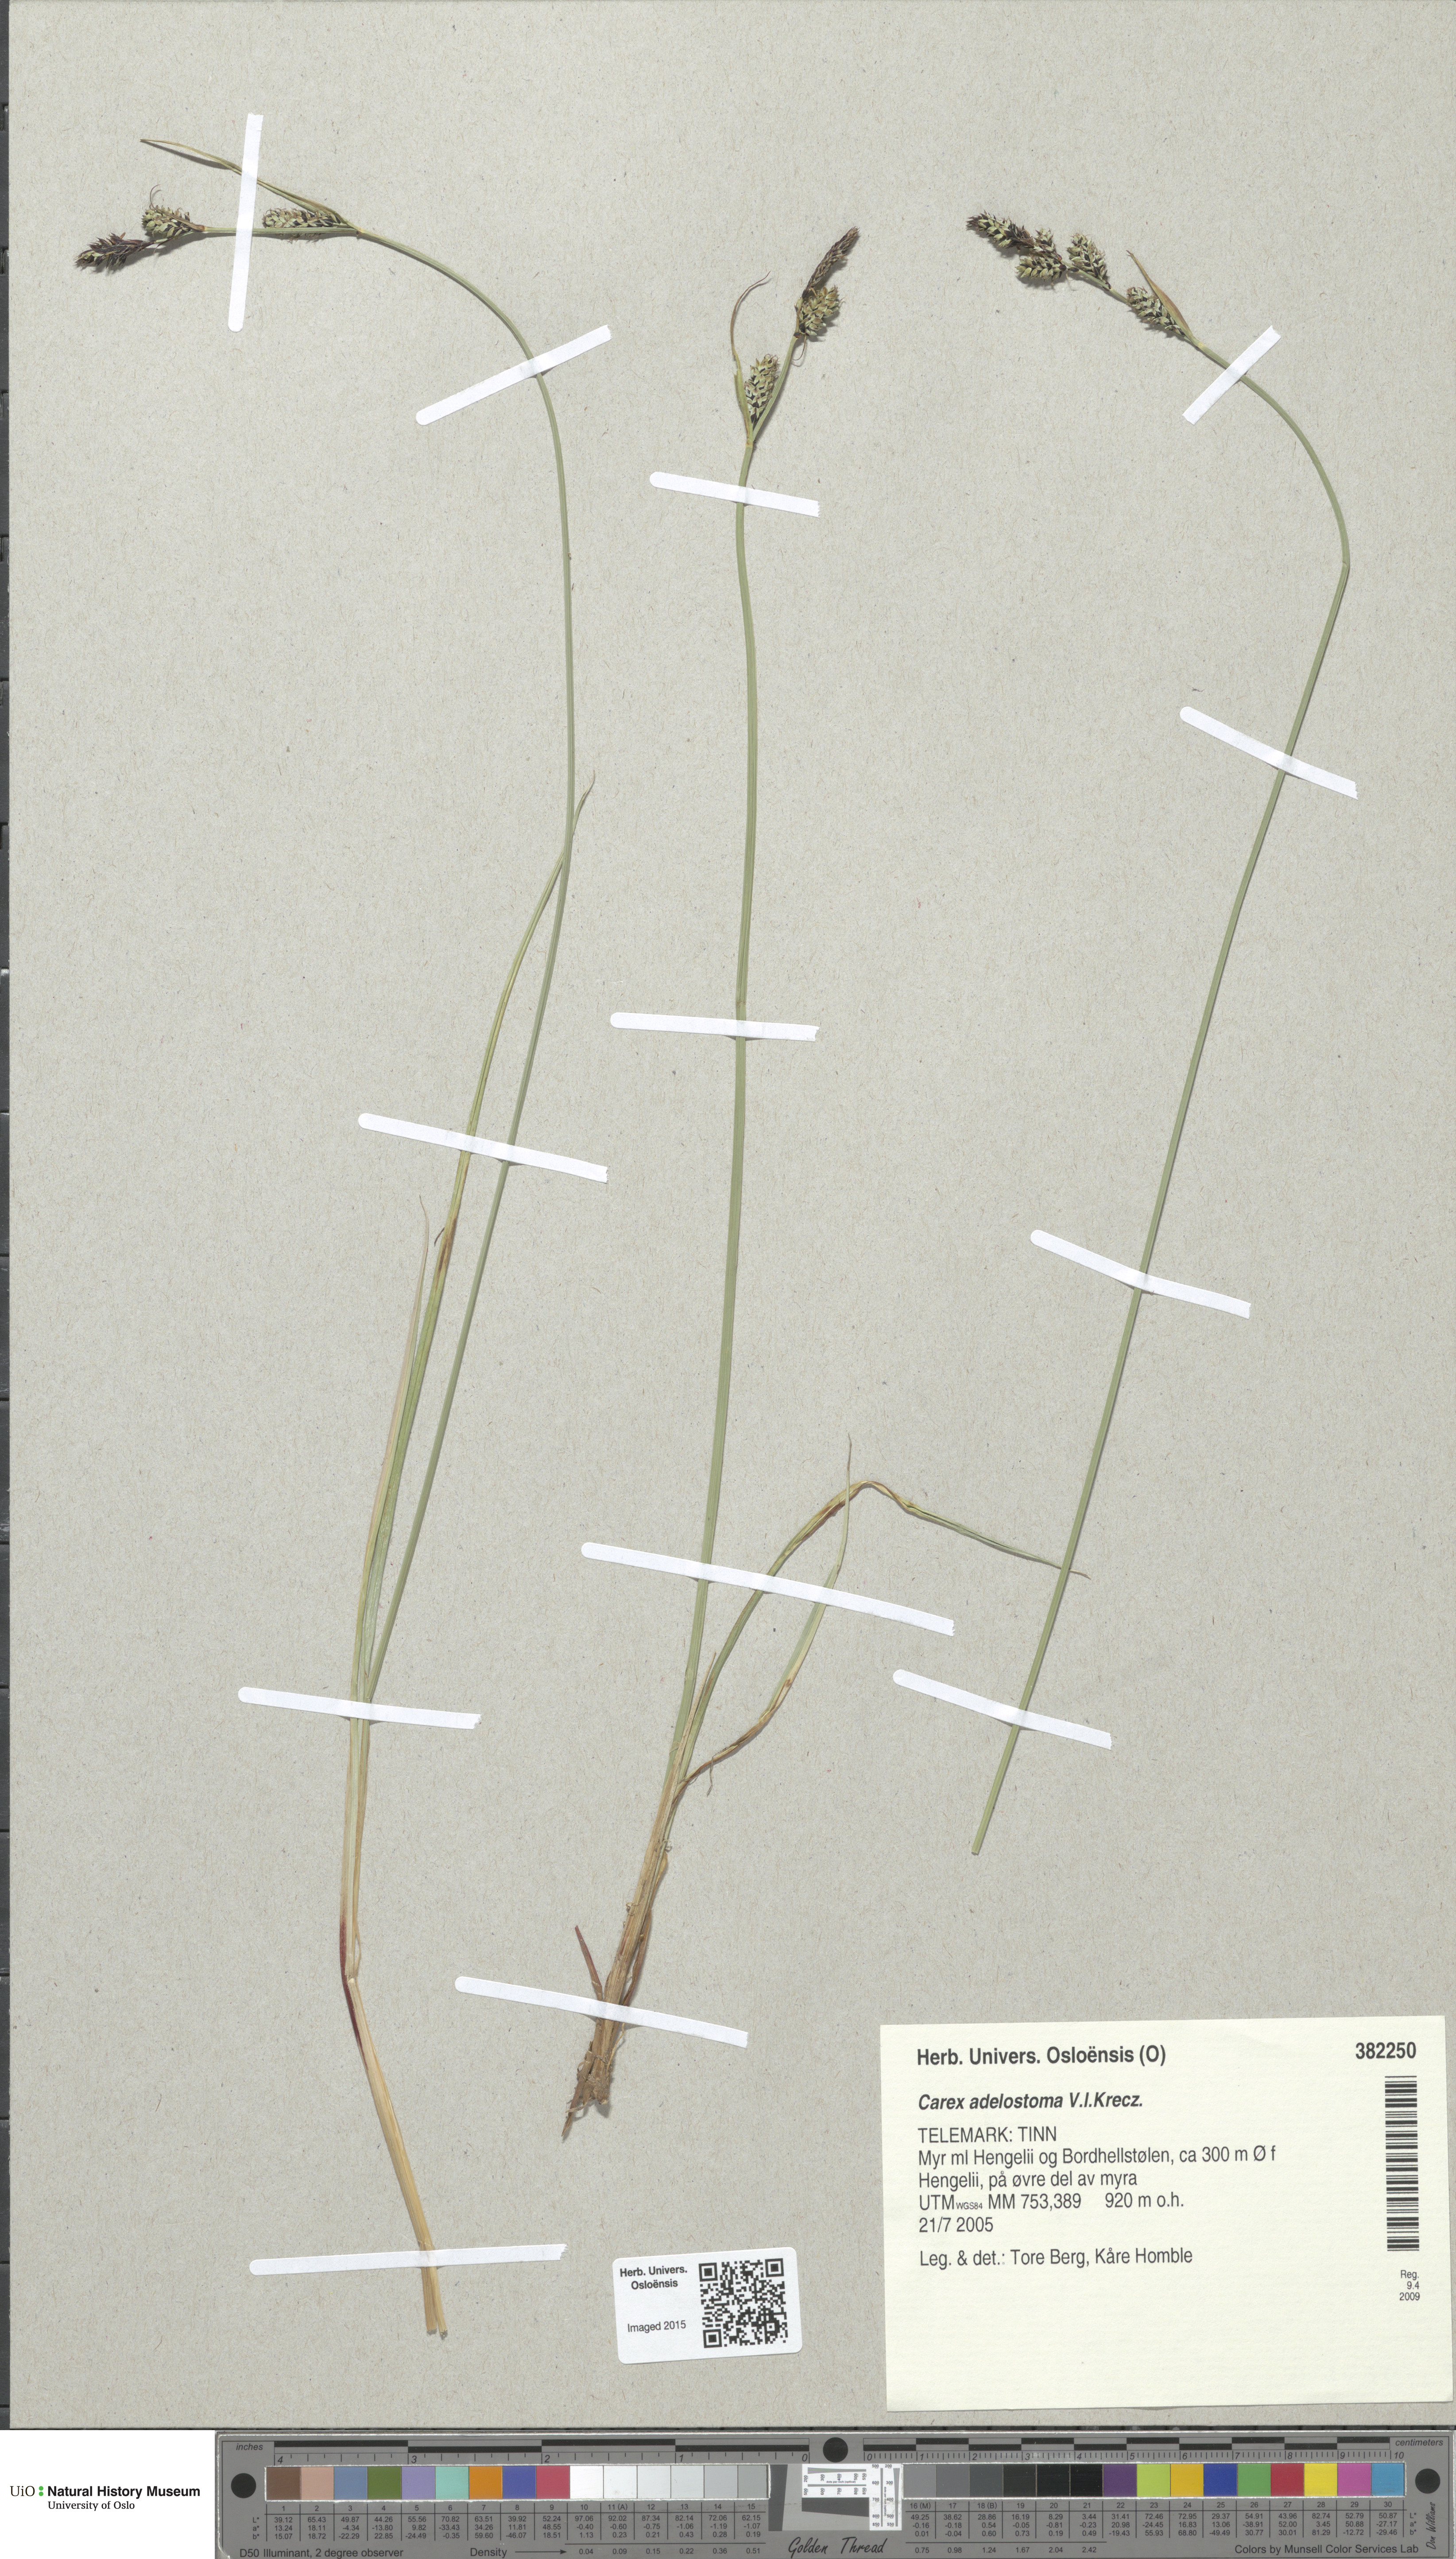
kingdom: Plantae
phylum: Tracheophyta
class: Liliopsida
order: Poales
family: Cyperaceae
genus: Carex
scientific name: Carex adelostoma
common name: Circumpolar sedge
